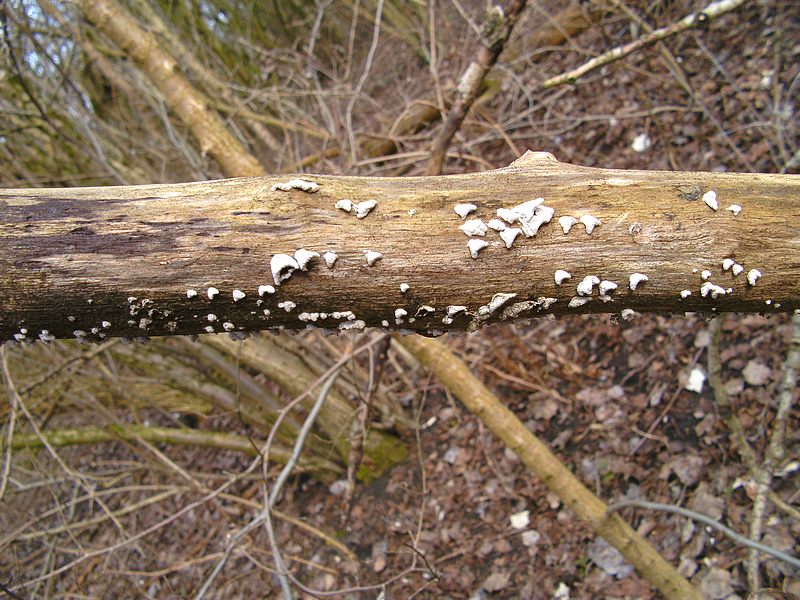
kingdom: Fungi
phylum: Basidiomycota
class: Agaricomycetes
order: Agaricales
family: Schizophyllaceae
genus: Schizophyllum
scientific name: Schizophyllum amplum
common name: poppel-hængeøre
